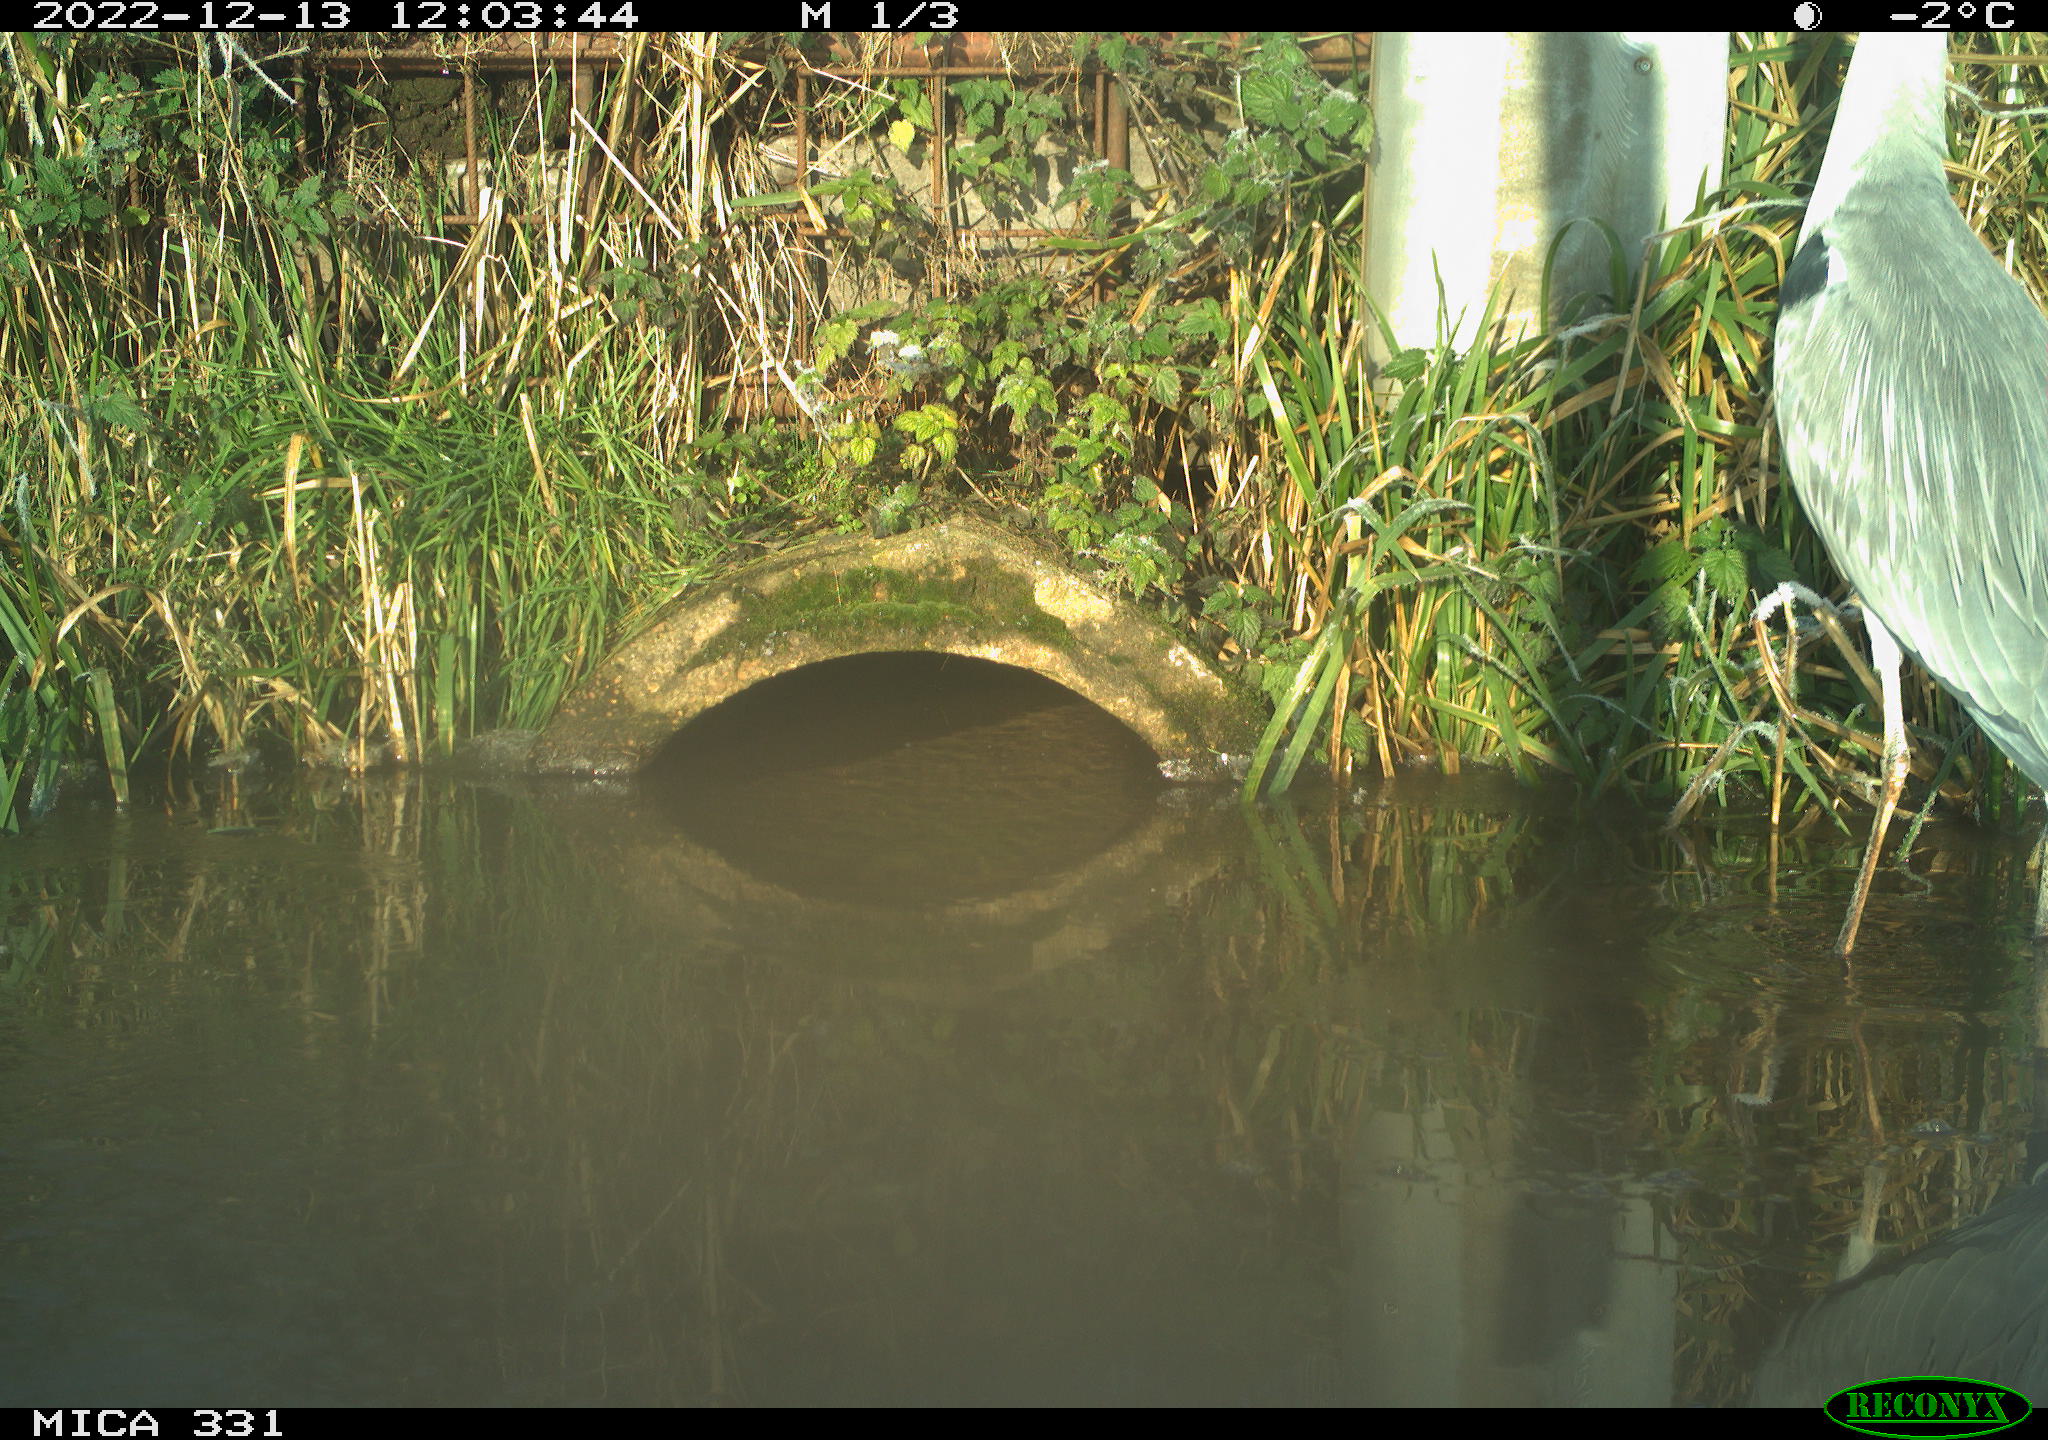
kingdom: Animalia
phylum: Chordata
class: Aves
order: Pelecaniformes
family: Ardeidae
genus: Ardea
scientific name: Ardea cinerea
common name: Grey heron
